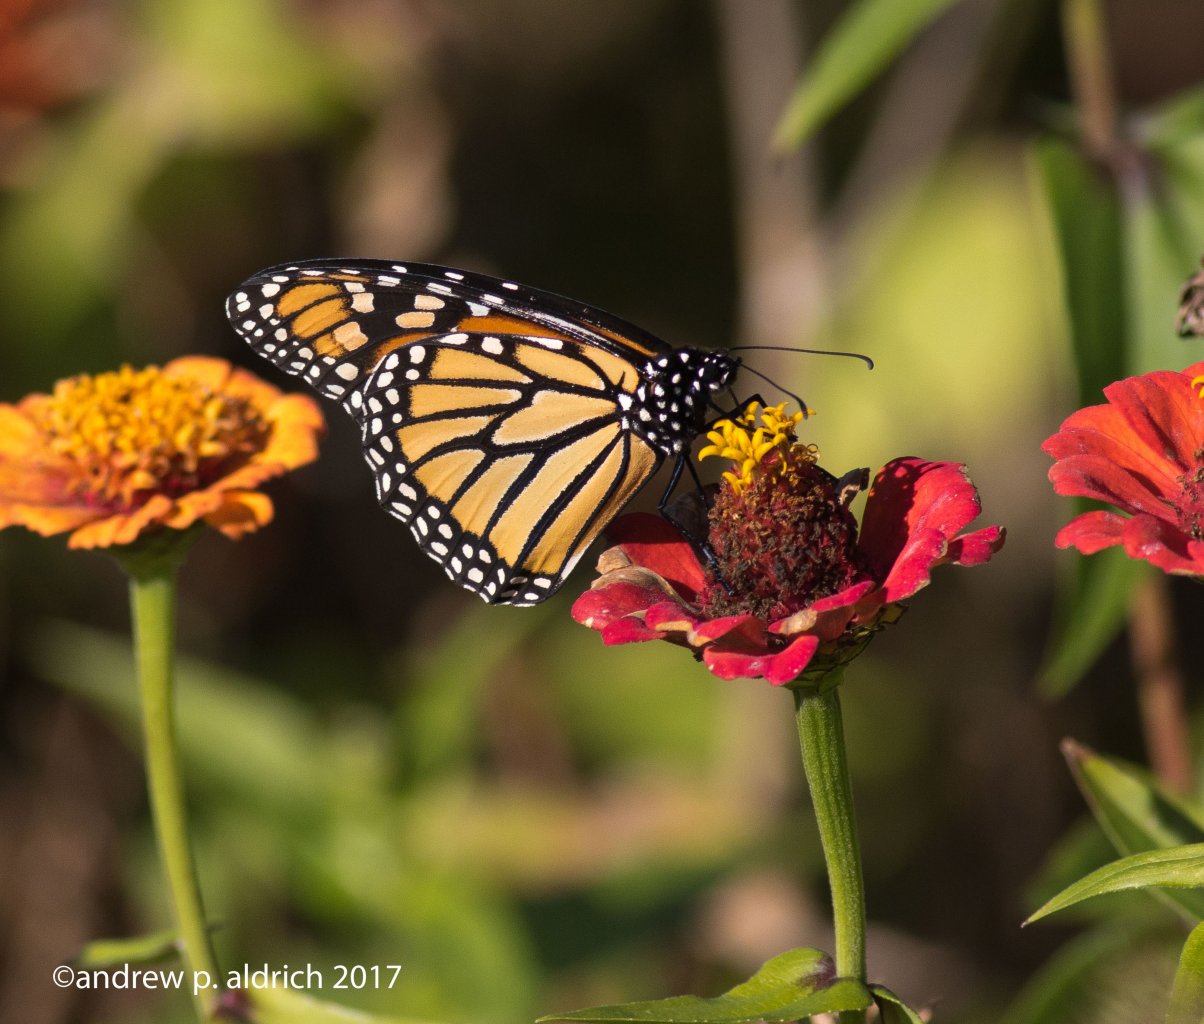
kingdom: Animalia
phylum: Arthropoda
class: Insecta
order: Lepidoptera
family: Nymphalidae
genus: Danaus
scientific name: Danaus plexippus
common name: Monarch
